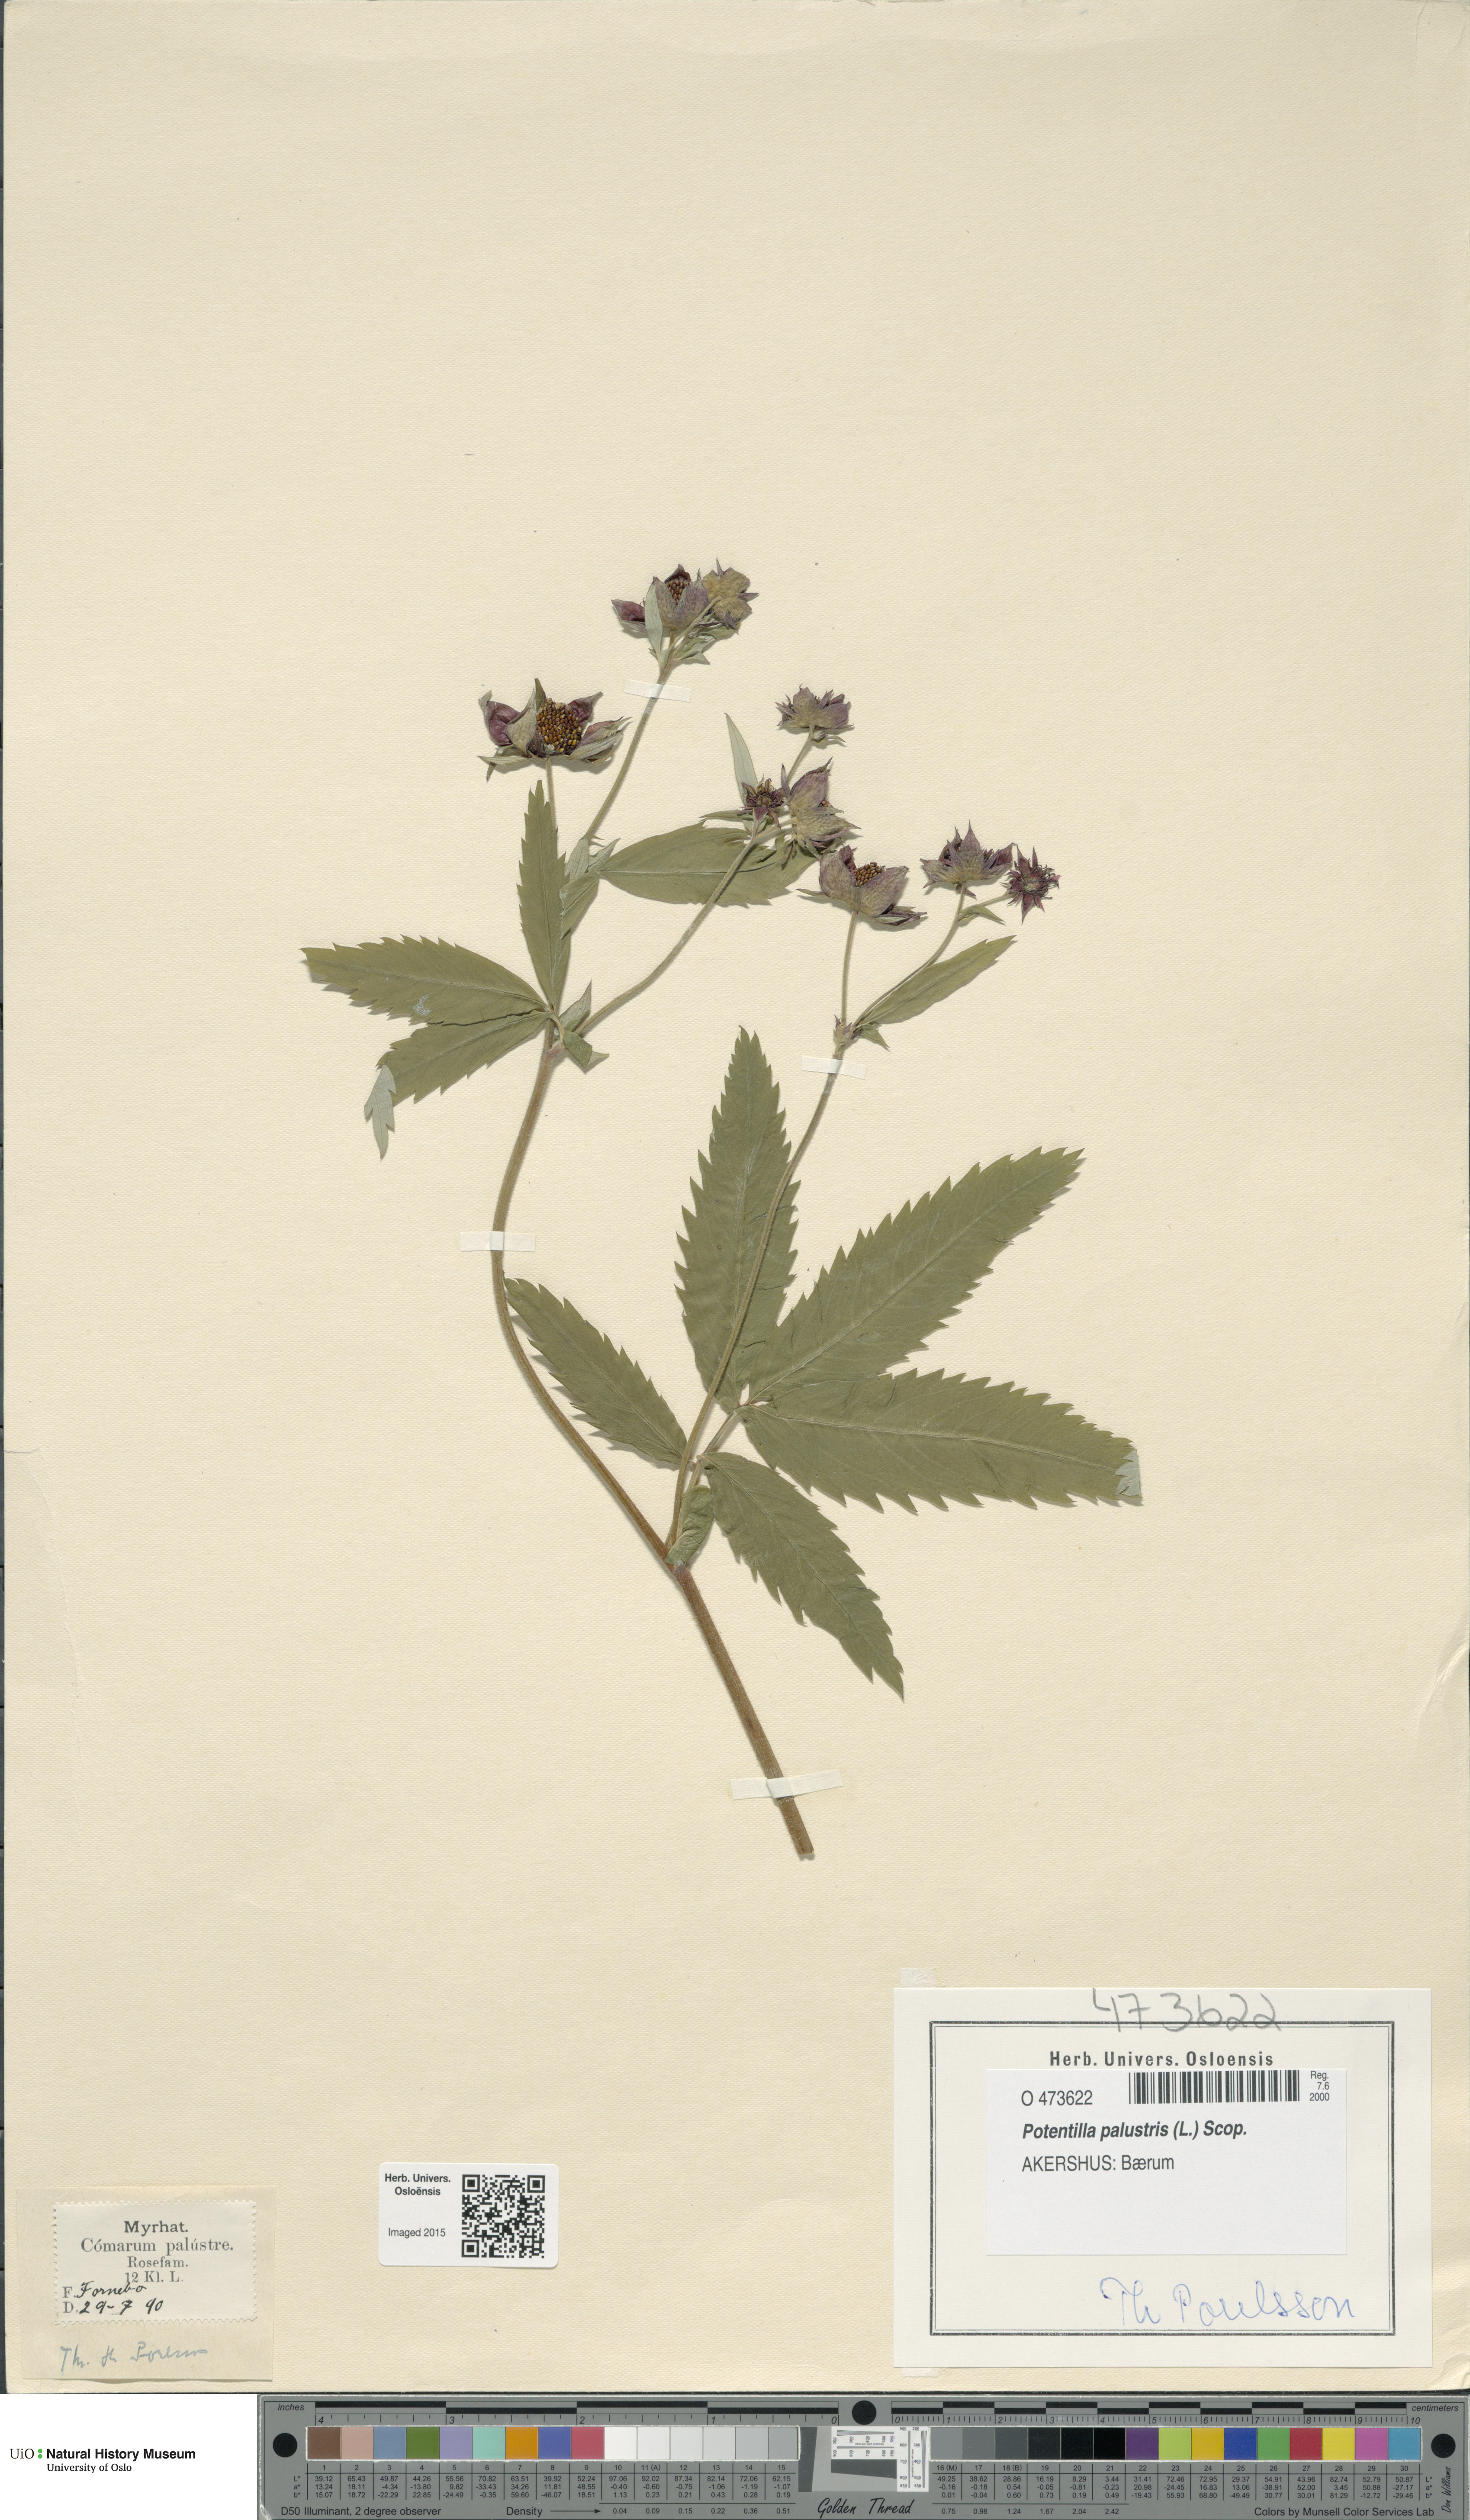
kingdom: Plantae
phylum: Tracheophyta
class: Magnoliopsida
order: Rosales
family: Rosaceae
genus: Comarum
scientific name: Comarum palustre
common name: Marsh cinquefoil
